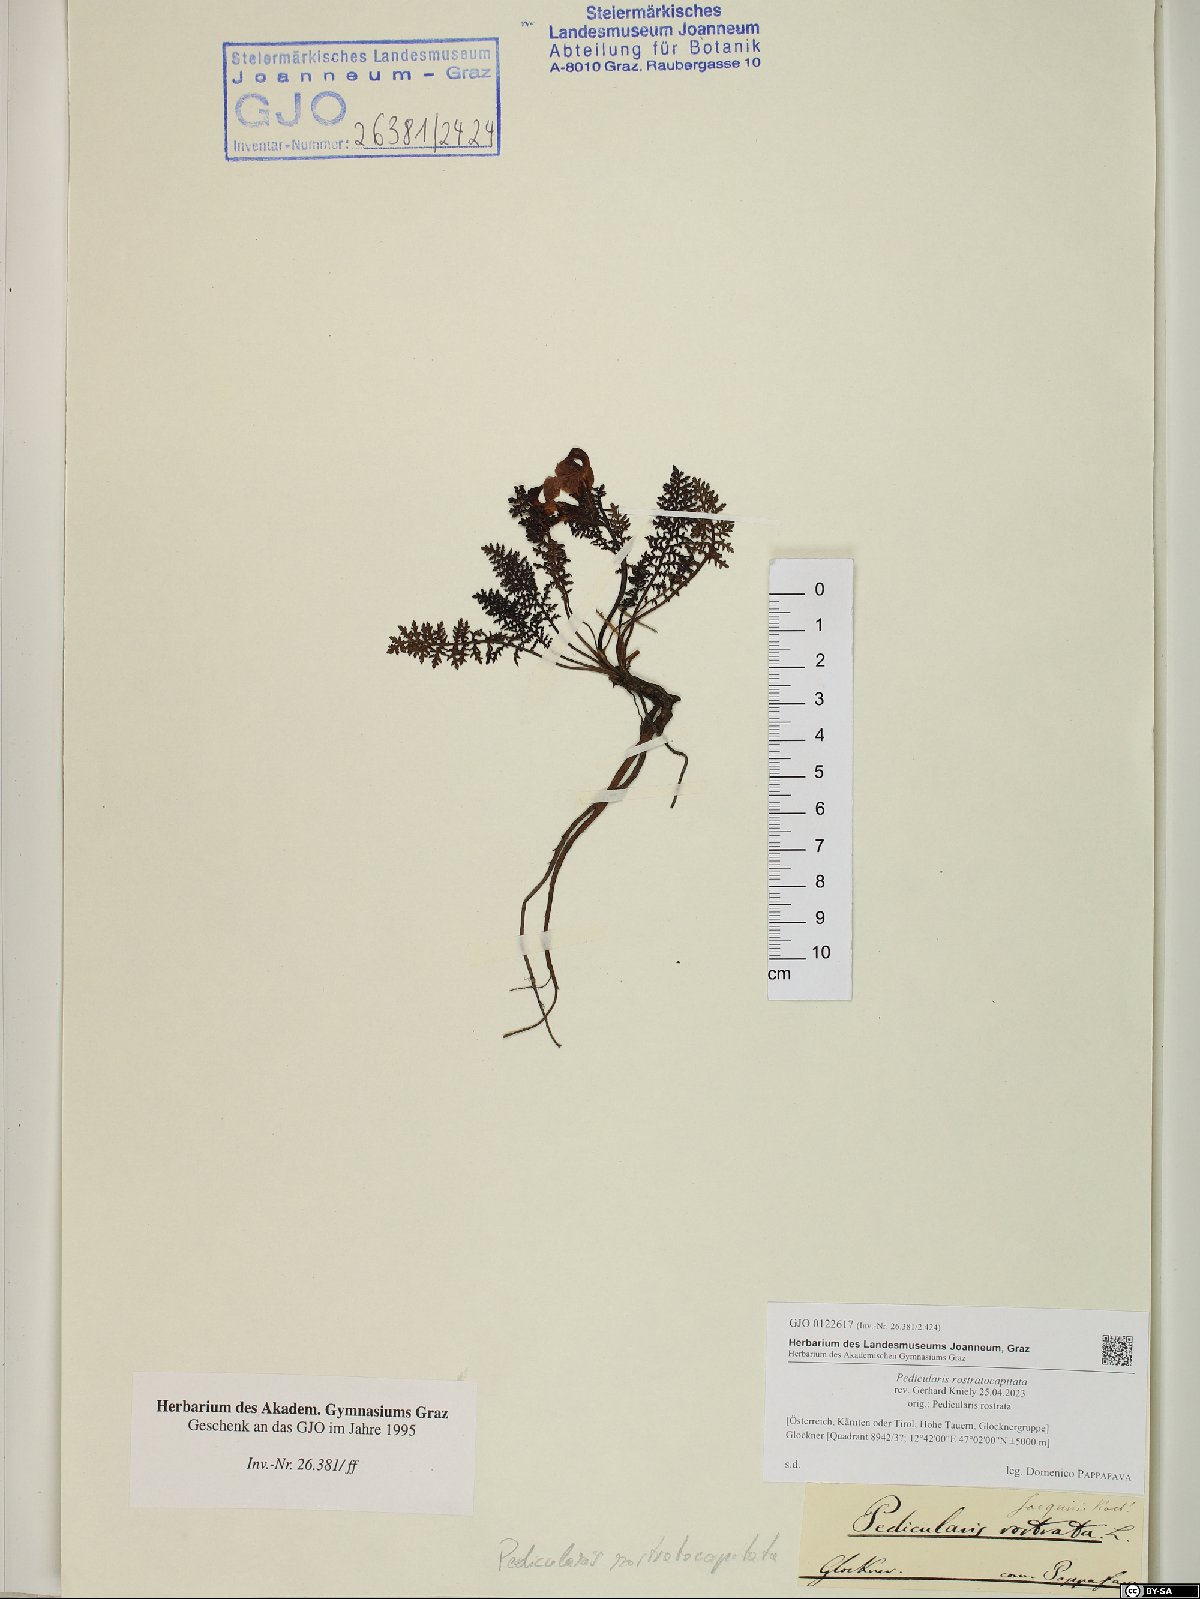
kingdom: Plantae
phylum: Tracheophyta
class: Magnoliopsida
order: Lamiales
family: Orobanchaceae
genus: Pedicularis
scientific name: Pedicularis rostratocapitata
